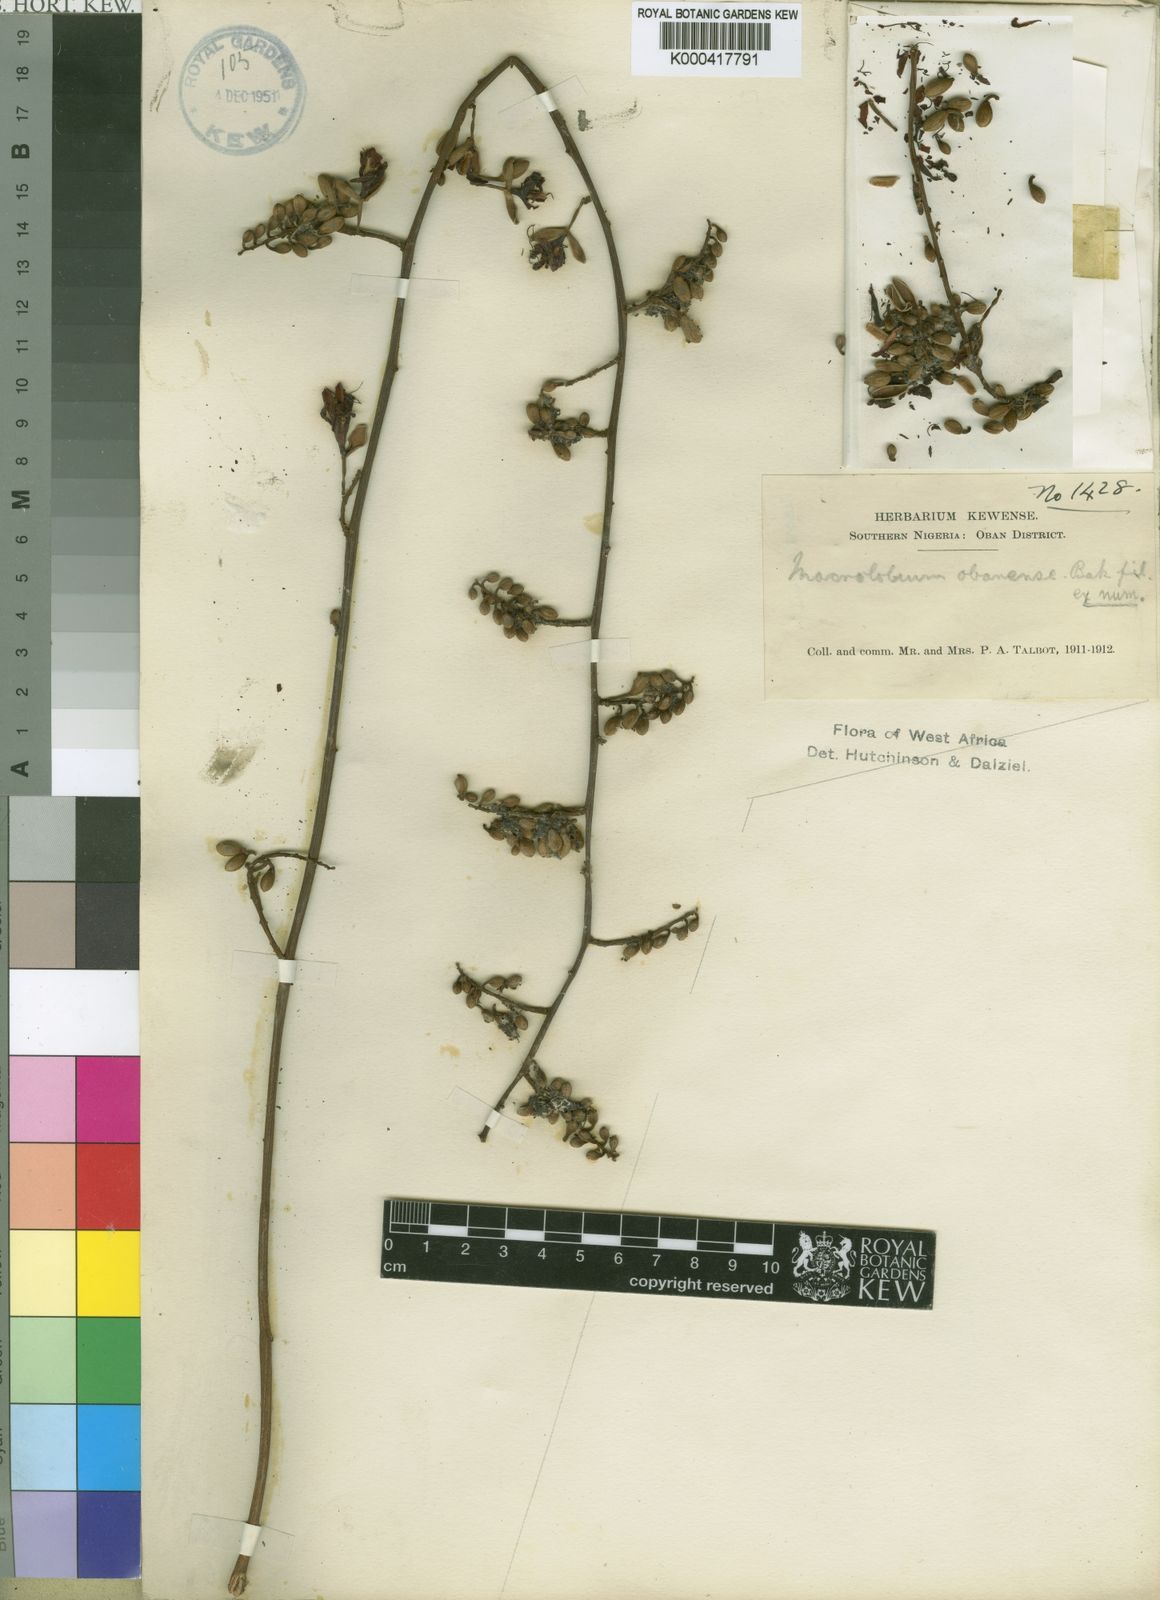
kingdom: Plantae
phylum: Tracheophyta
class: Magnoliopsida
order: Fabales
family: Fabaceae
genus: Englerodendron
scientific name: Englerodendron obanense
